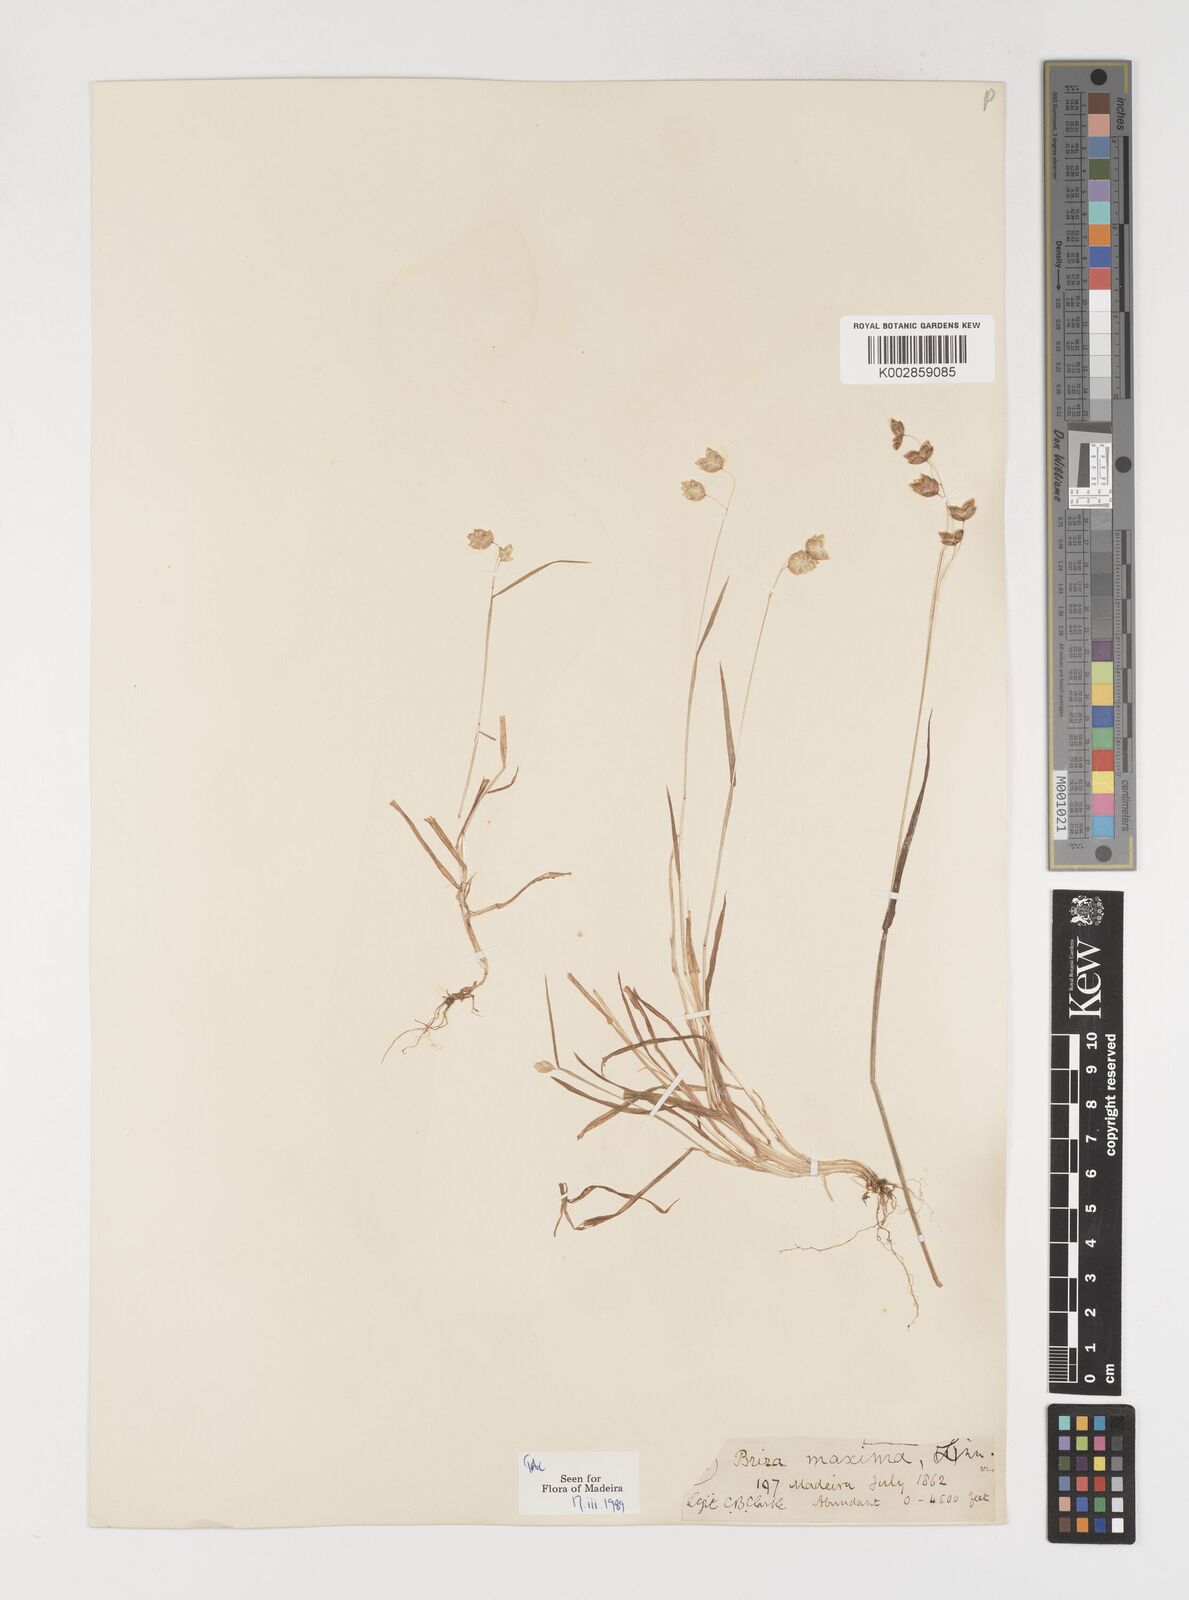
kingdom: Plantae
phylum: Tracheophyta
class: Liliopsida
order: Poales
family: Poaceae
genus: Briza
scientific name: Briza maxima
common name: Big quakinggrass
